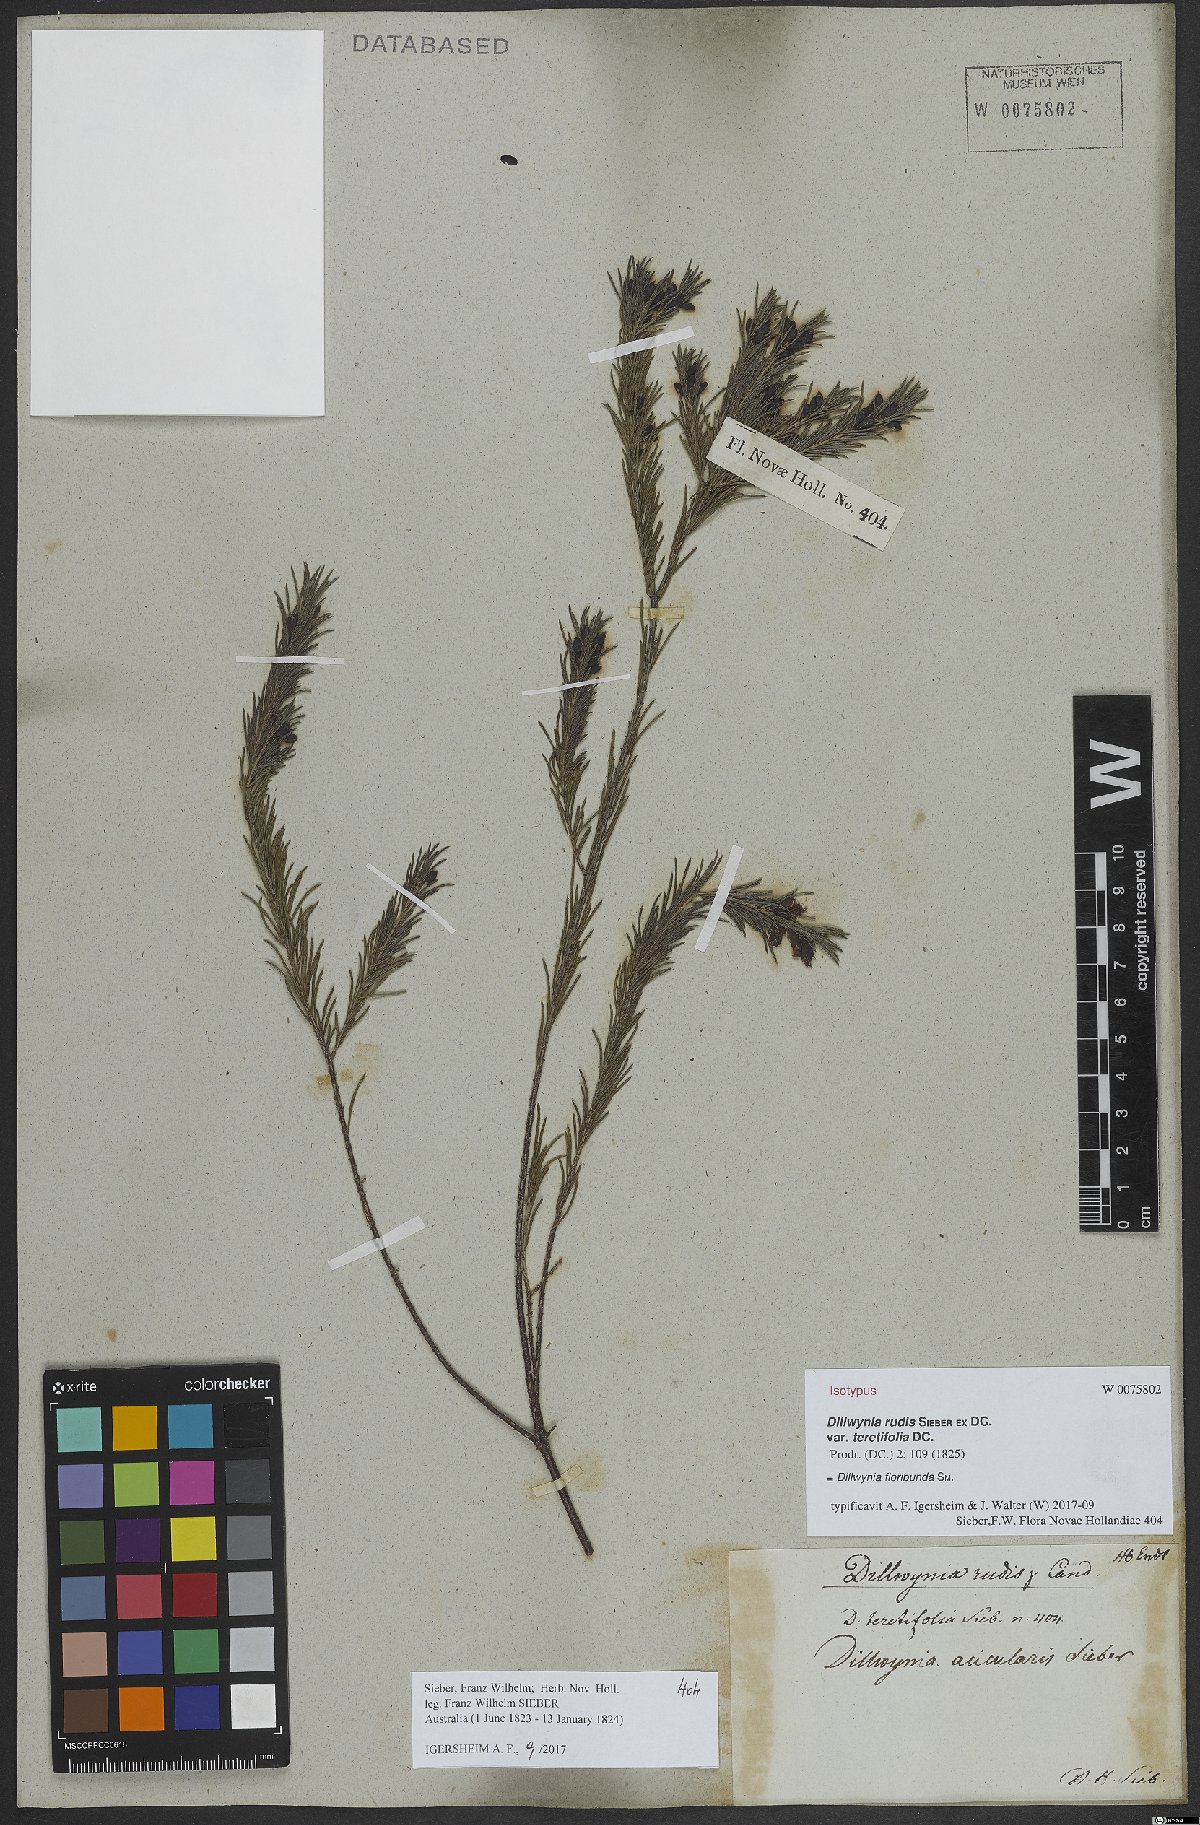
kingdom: Plantae
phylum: Tracheophyta
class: Magnoliopsida
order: Fabales
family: Fabaceae
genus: Dillwynia
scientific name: Dillwynia floribunda
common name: Eggs-and-bacon
